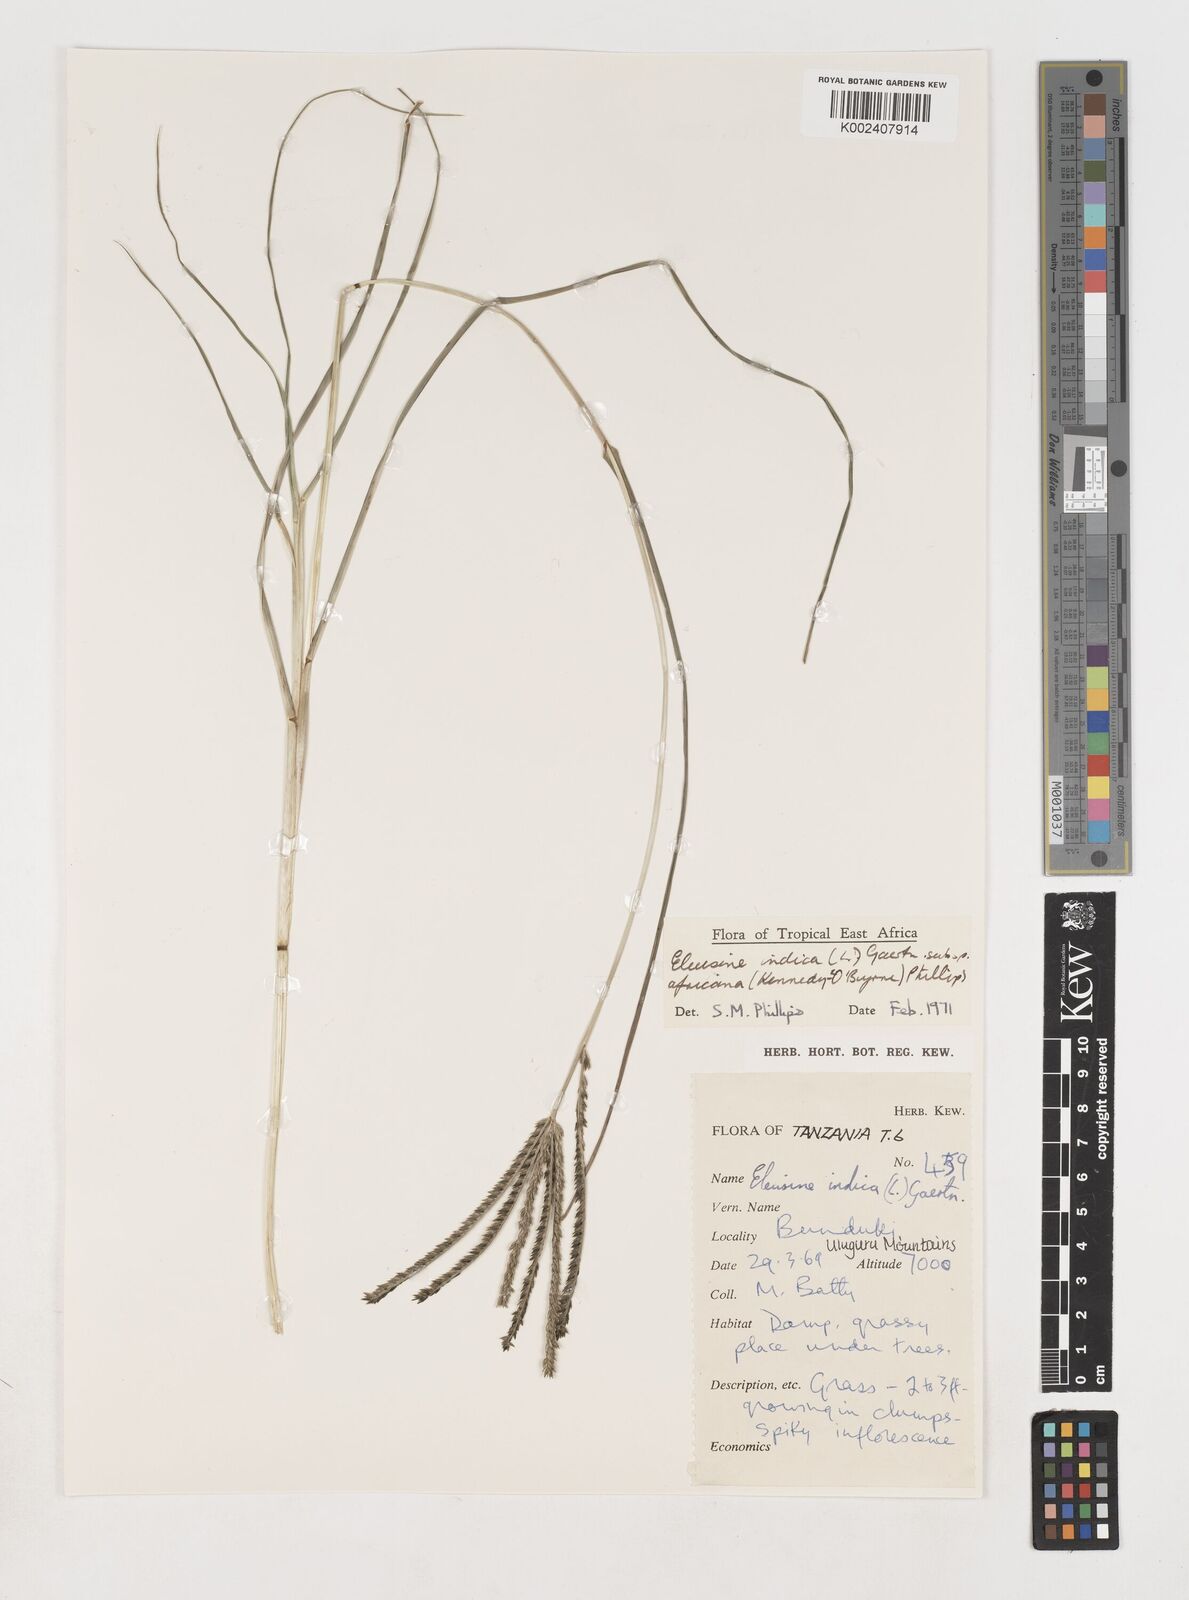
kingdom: Plantae
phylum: Tracheophyta
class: Liliopsida
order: Poales
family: Poaceae
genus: Eleusine
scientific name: Eleusine africana
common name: Wild african finger millet
